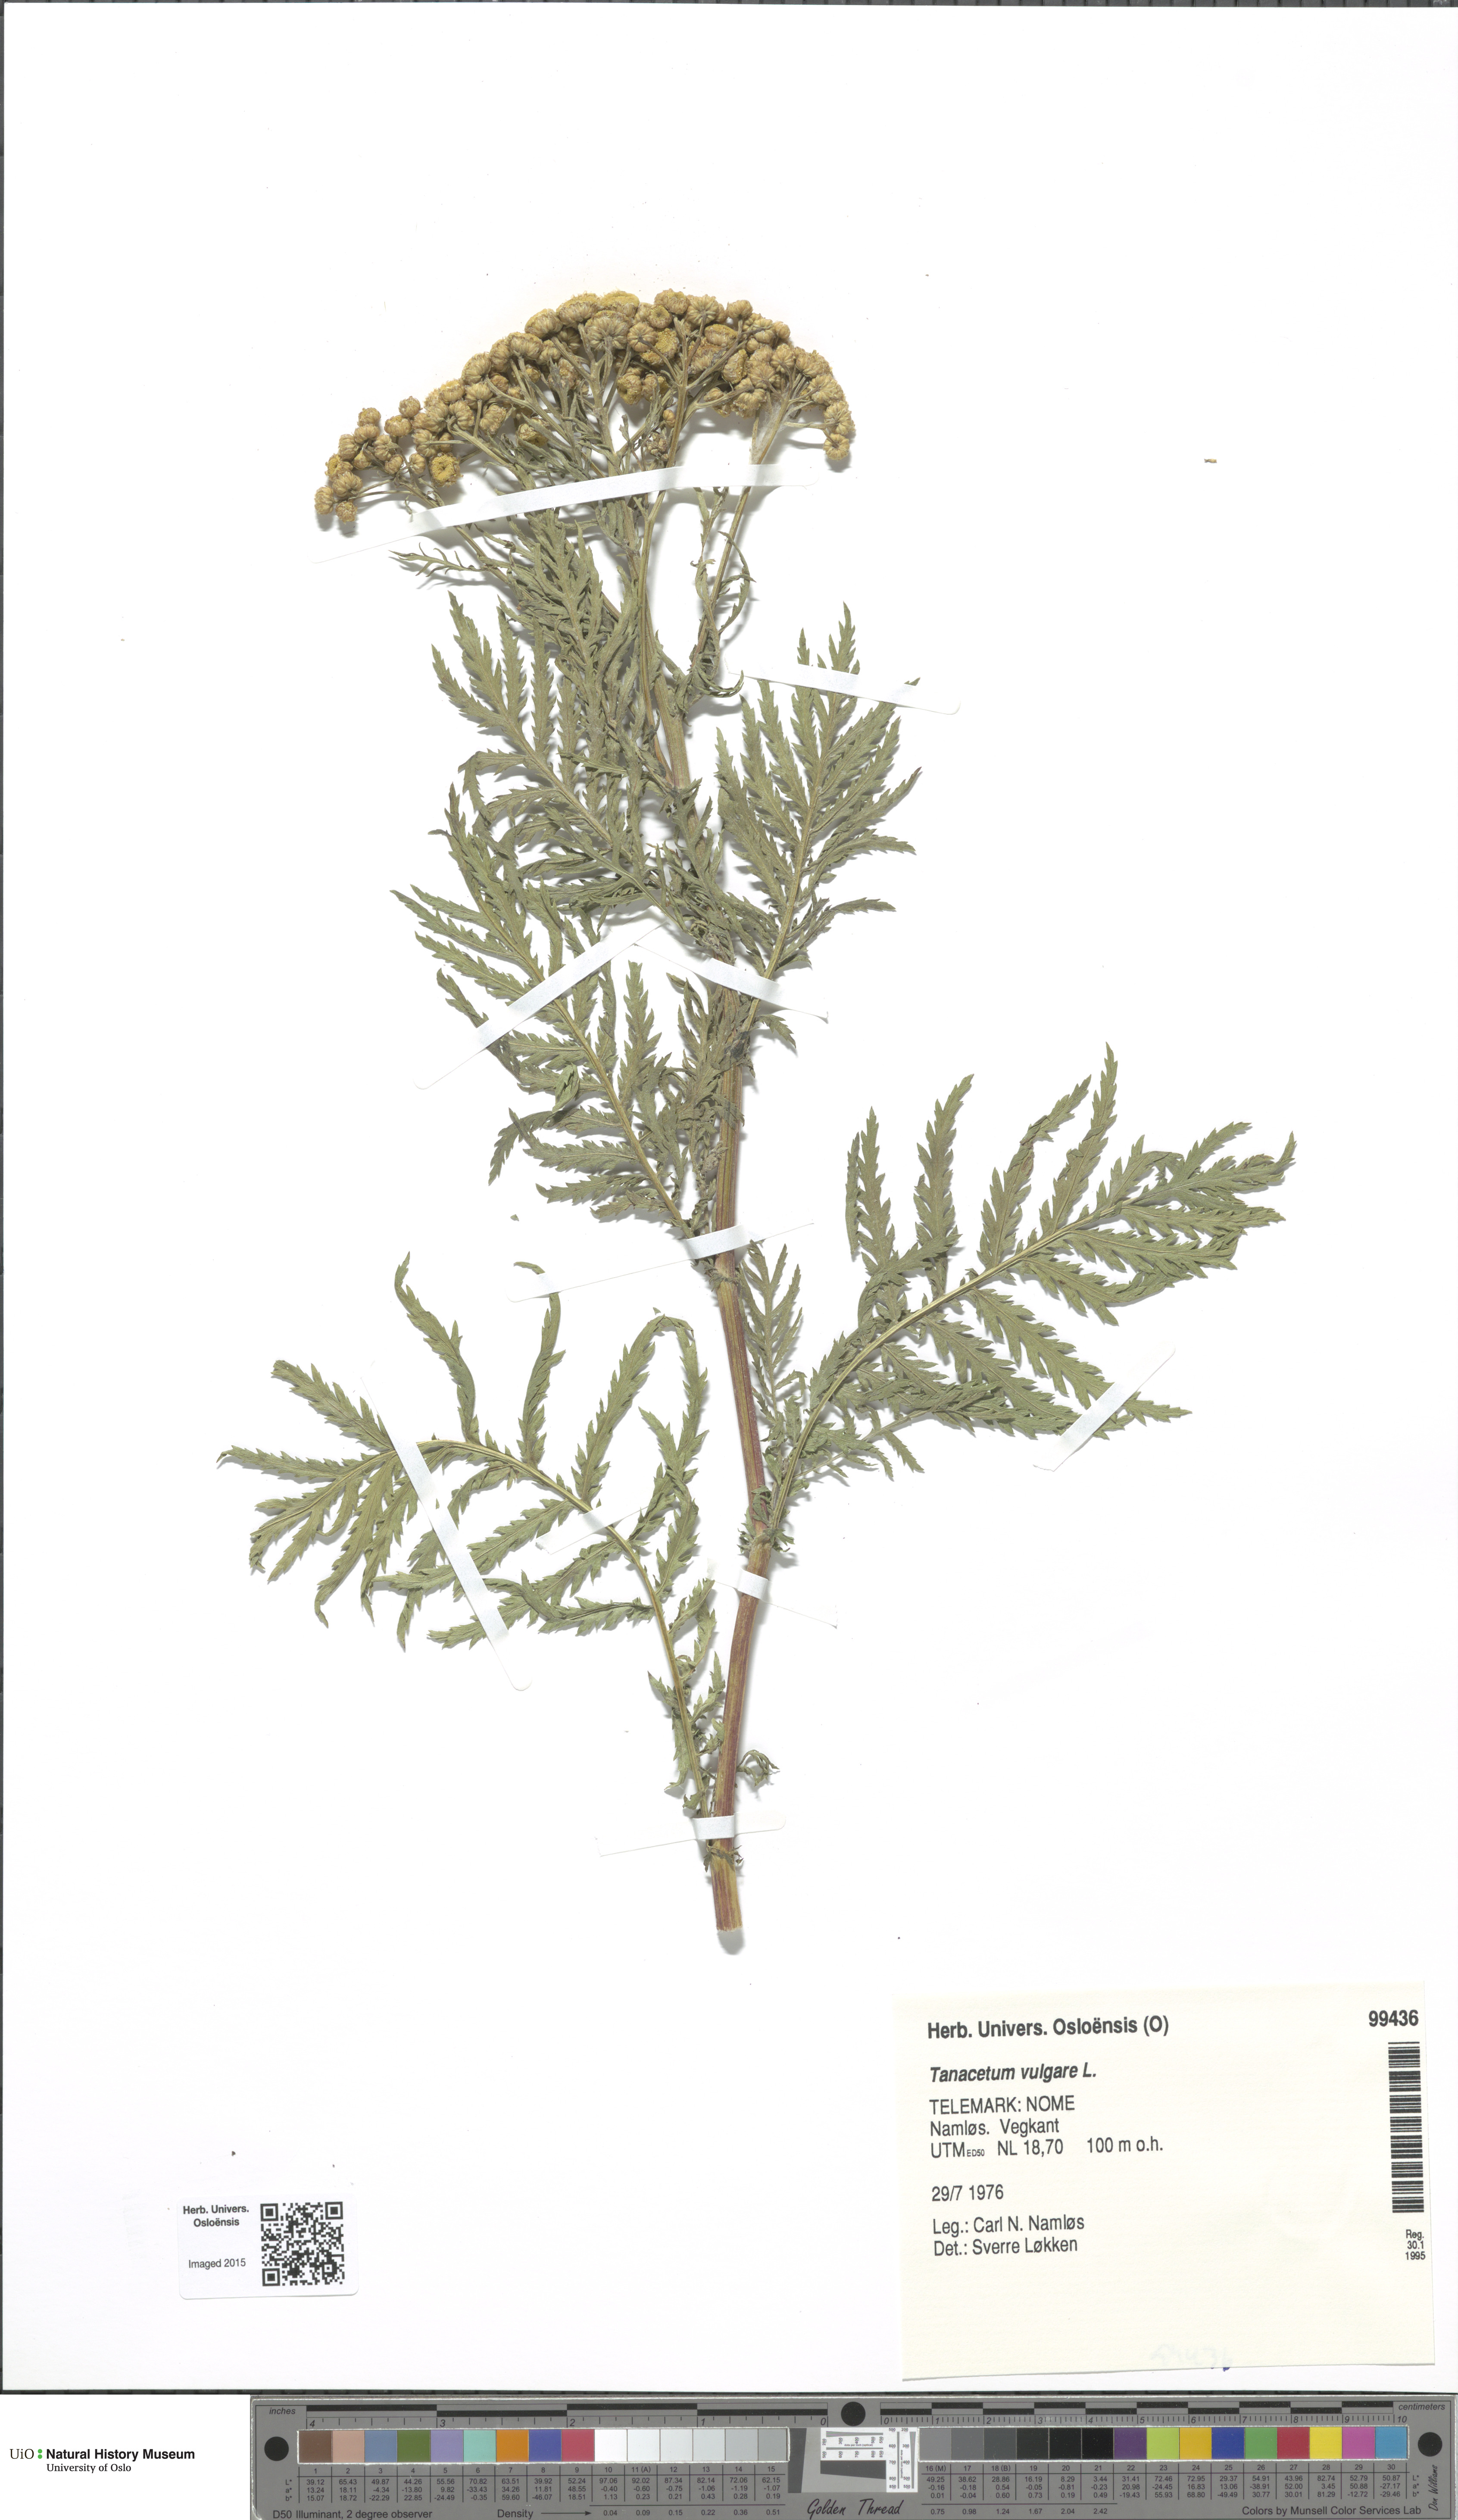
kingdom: Plantae
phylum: Tracheophyta
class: Magnoliopsida
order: Asterales
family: Asteraceae
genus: Tanacetum
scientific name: Tanacetum vulgare
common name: Common tansy
